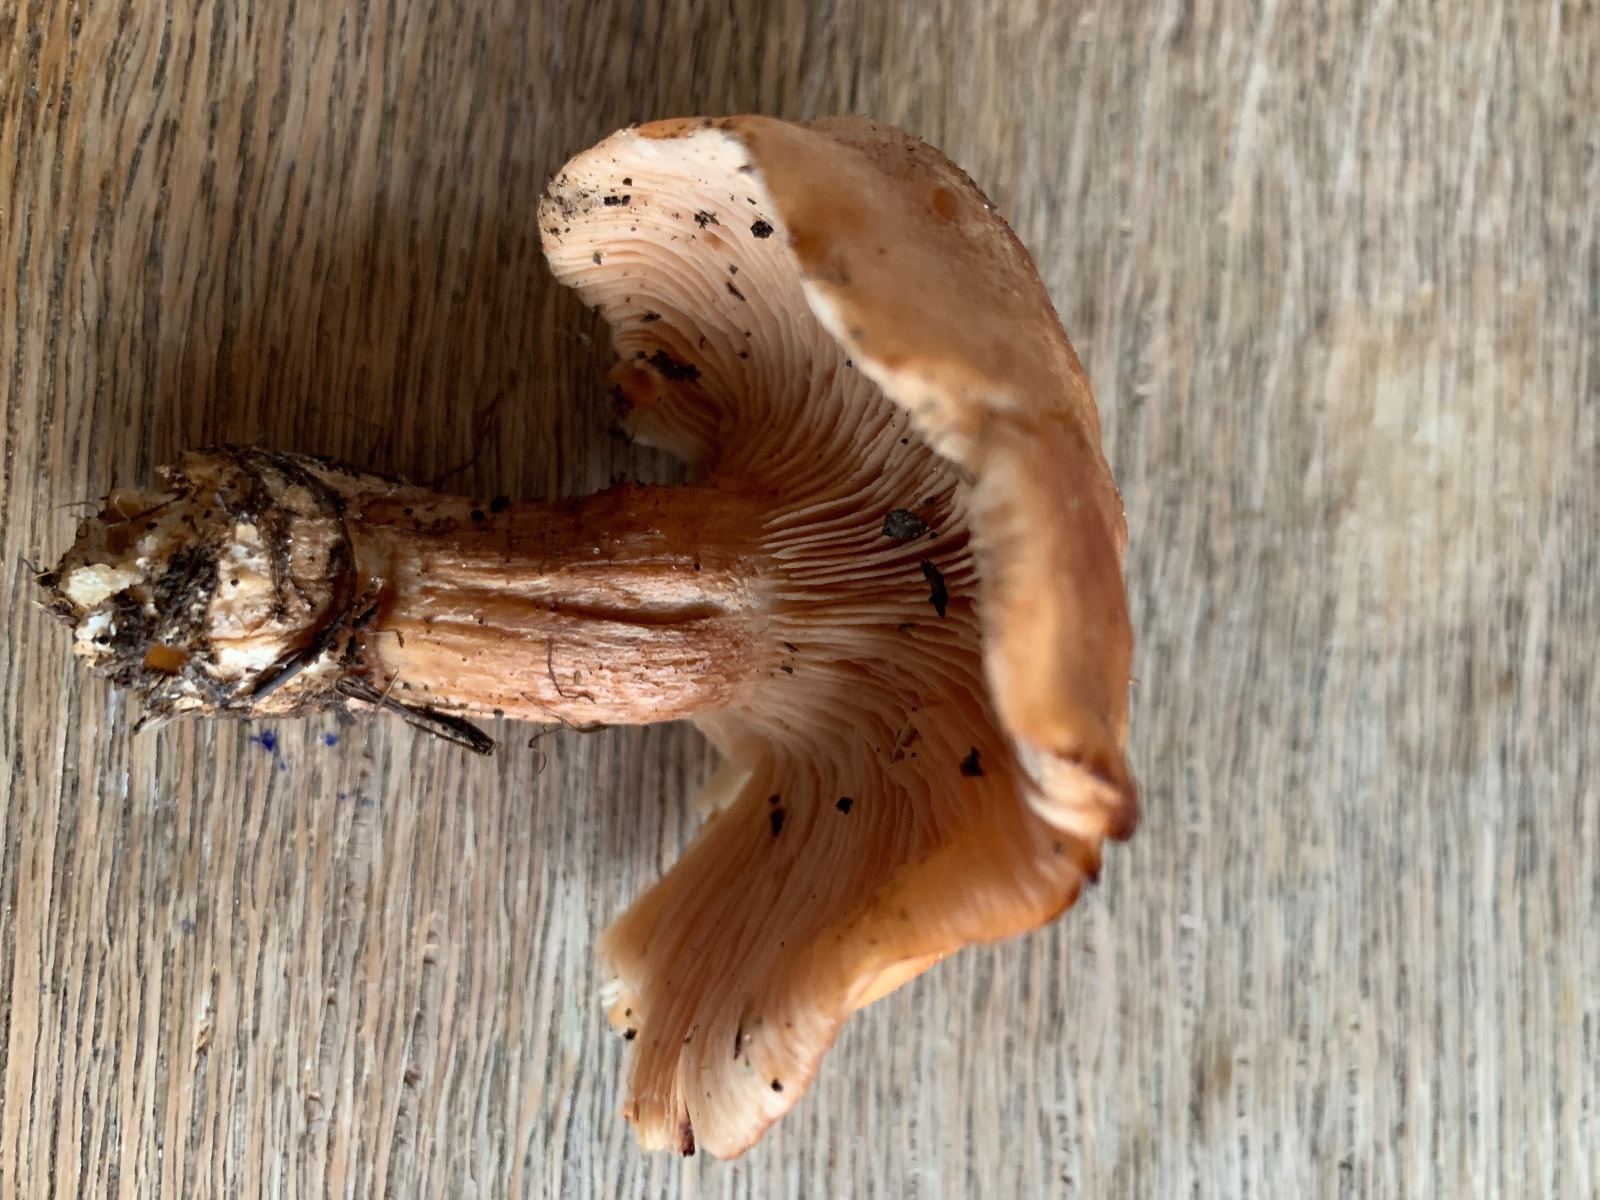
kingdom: Fungi
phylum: Basidiomycota
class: Agaricomycetes
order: Agaricales
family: Entolomataceae
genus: Clitopilus
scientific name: Clitopilus geminus
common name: kødfarvet troldhat
